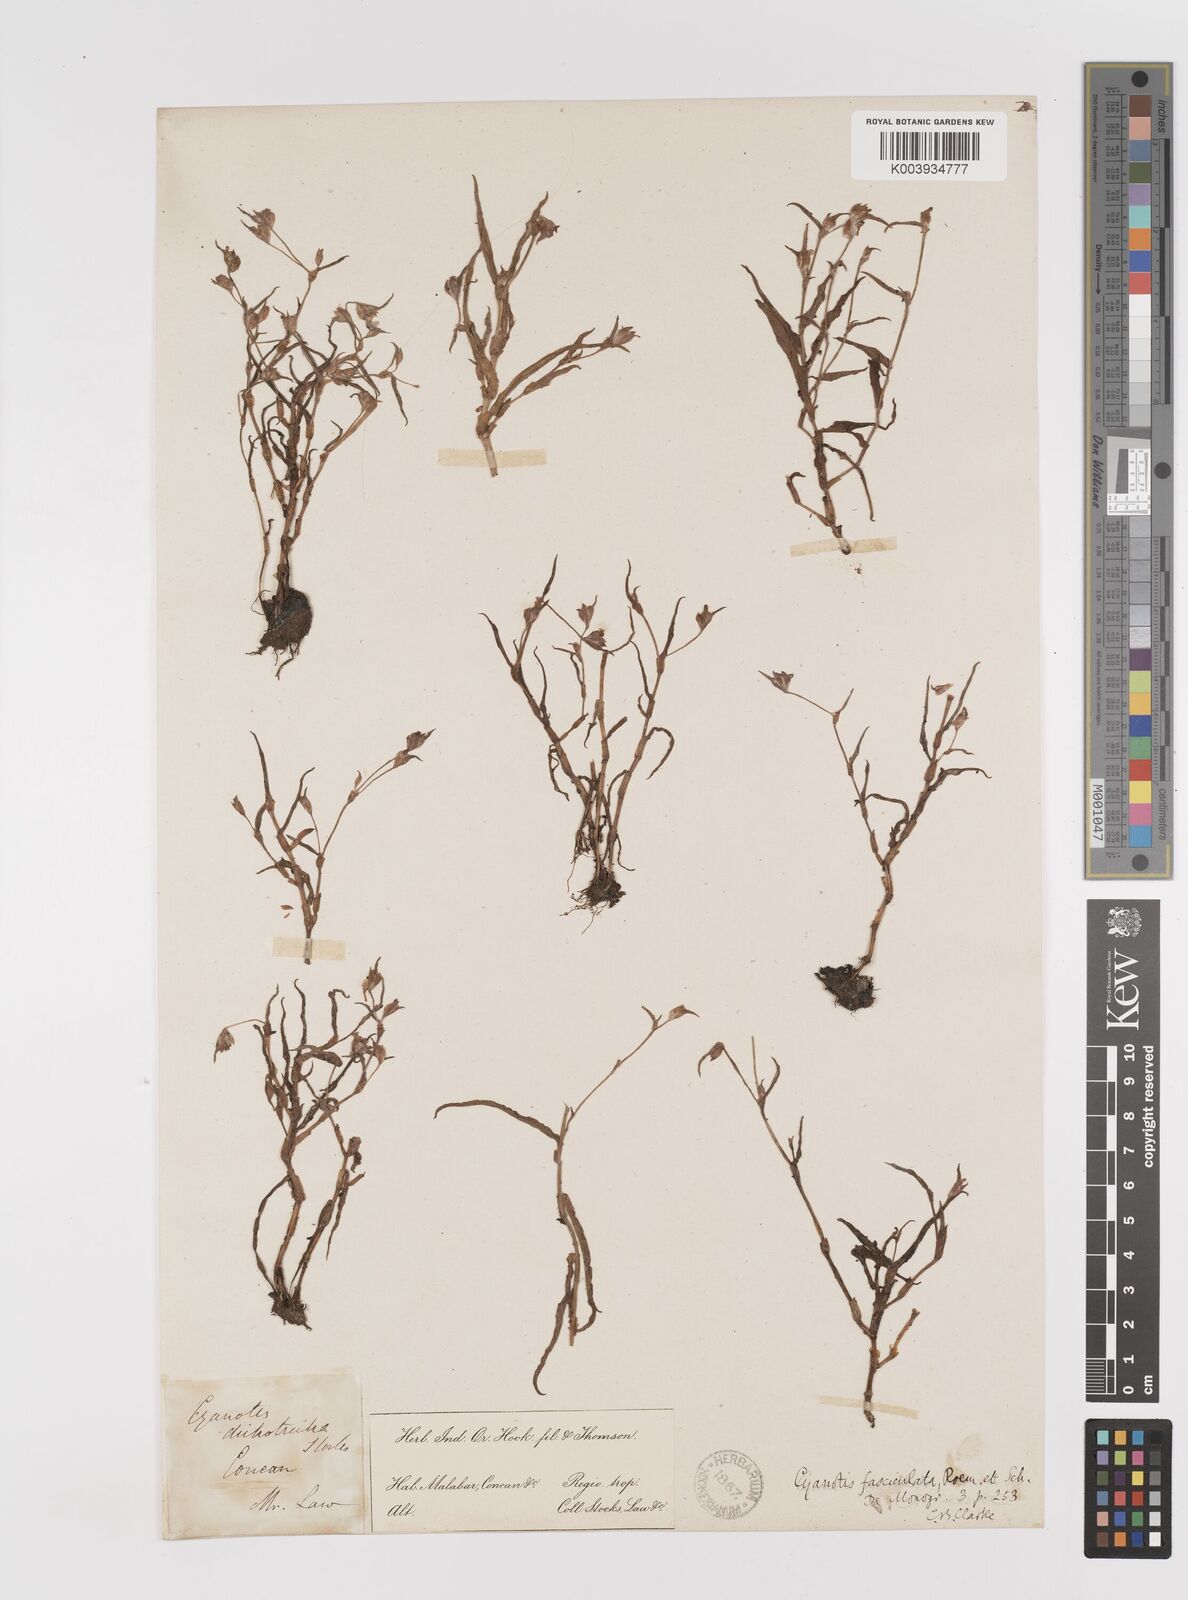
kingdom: Plantae
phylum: Tracheophyta
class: Liliopsida
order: Commelinales
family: Commelinaceae
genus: Cyanotis
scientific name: Cyanotis fasciculata
